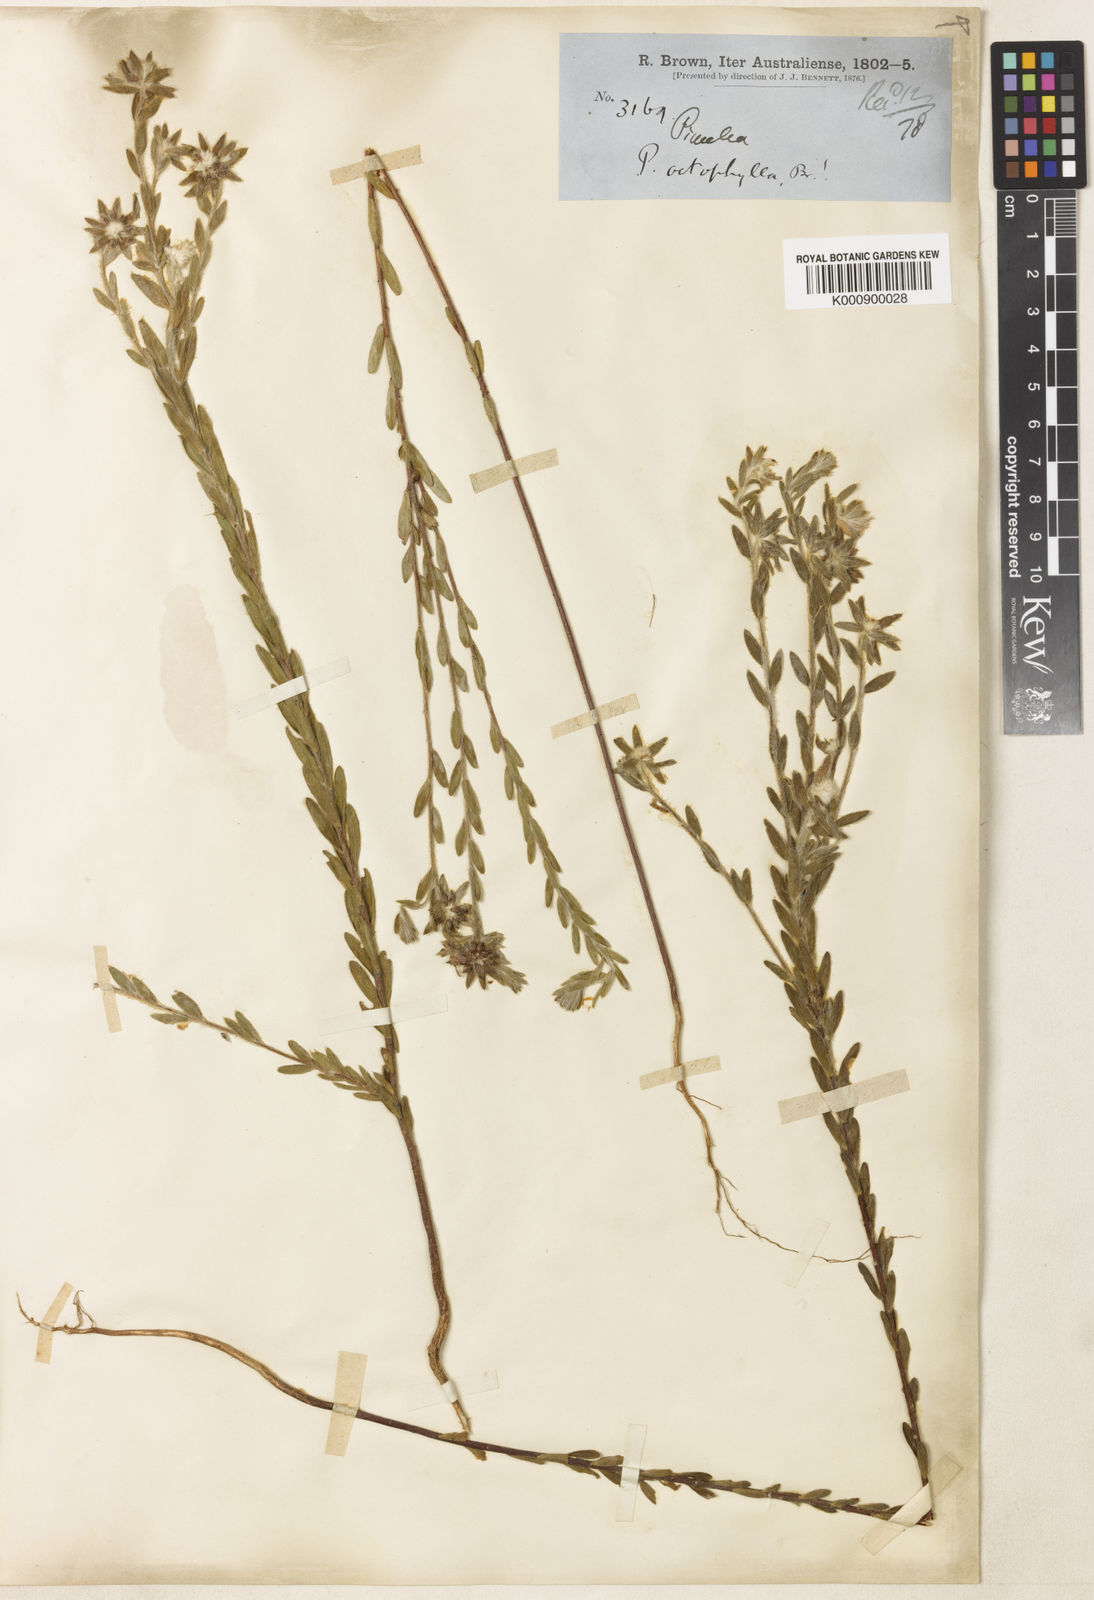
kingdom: Plantae
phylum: Tracheophyta
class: Magnoliopsida
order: Malvales
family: Thymelaeaceae
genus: Pimelea
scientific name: Pimelea octophylla
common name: Woolly riceflower
